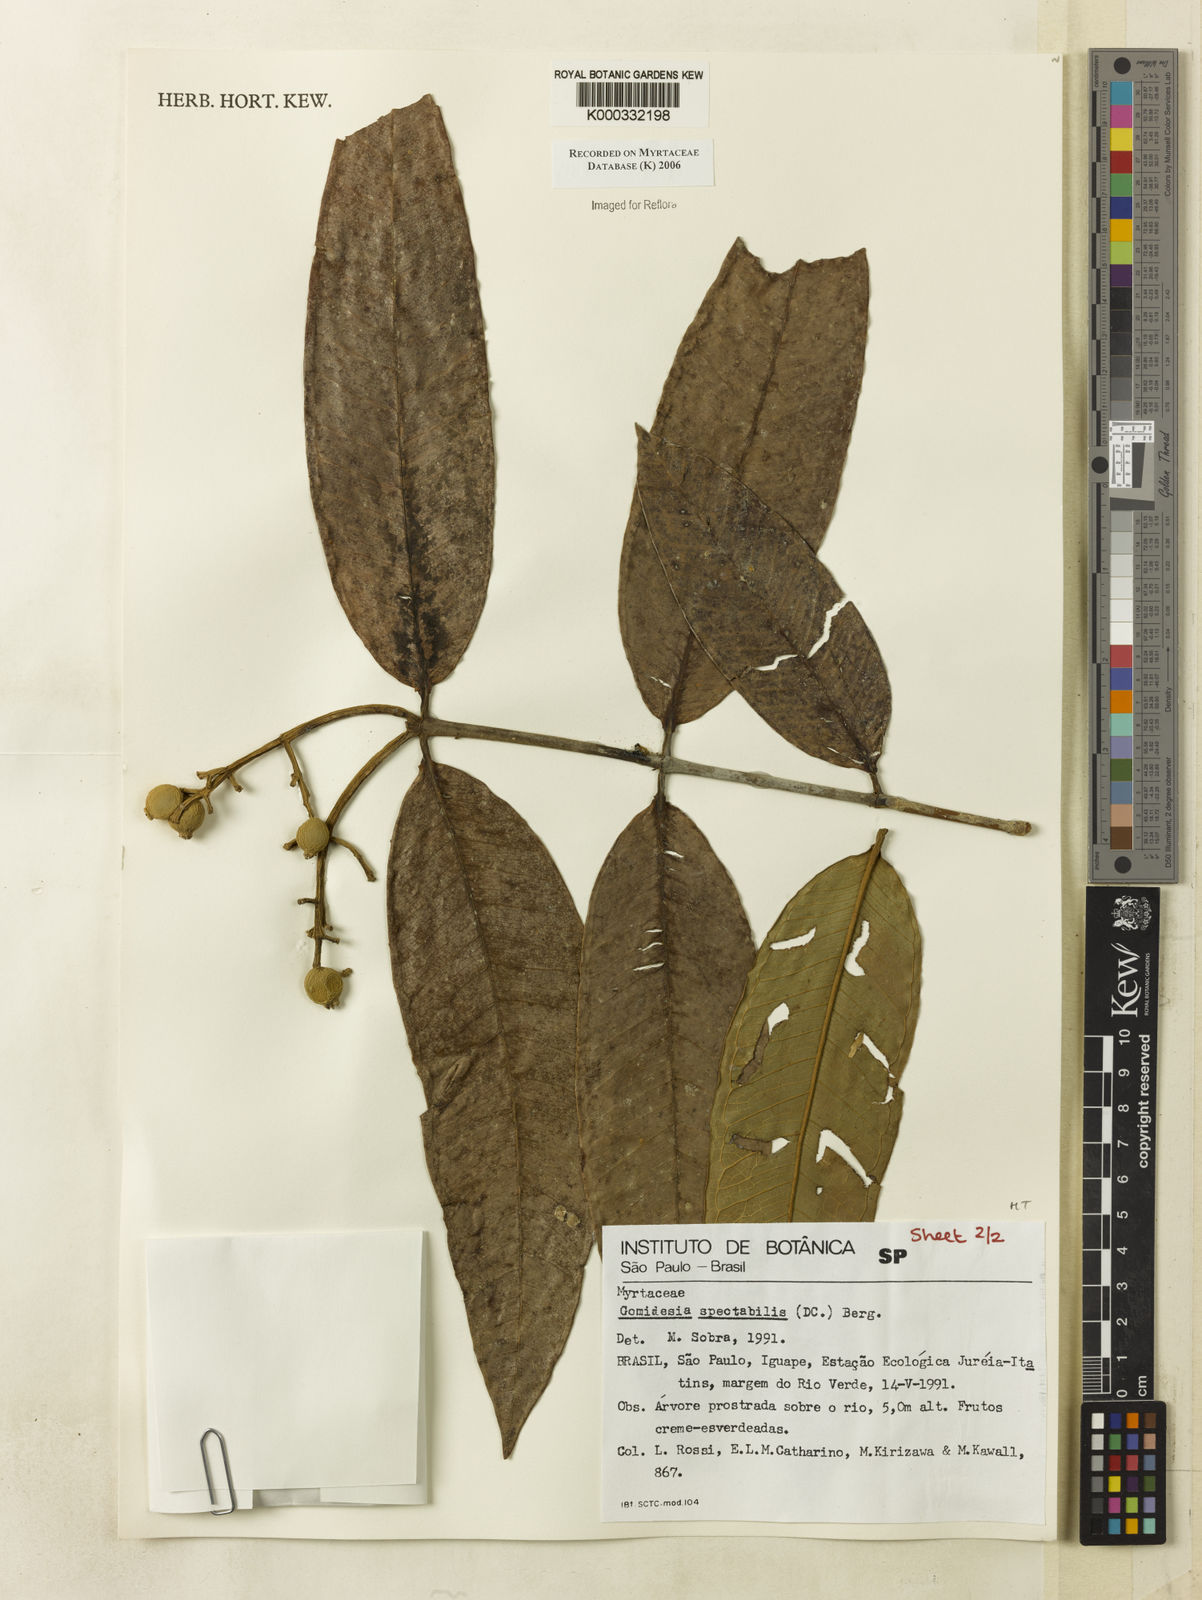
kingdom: Plantae
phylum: Tracheophyta
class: Magnoliopsida
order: Myrtales
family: Myrtaceae
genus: Myrcia
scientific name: Myrcia spectabilis
